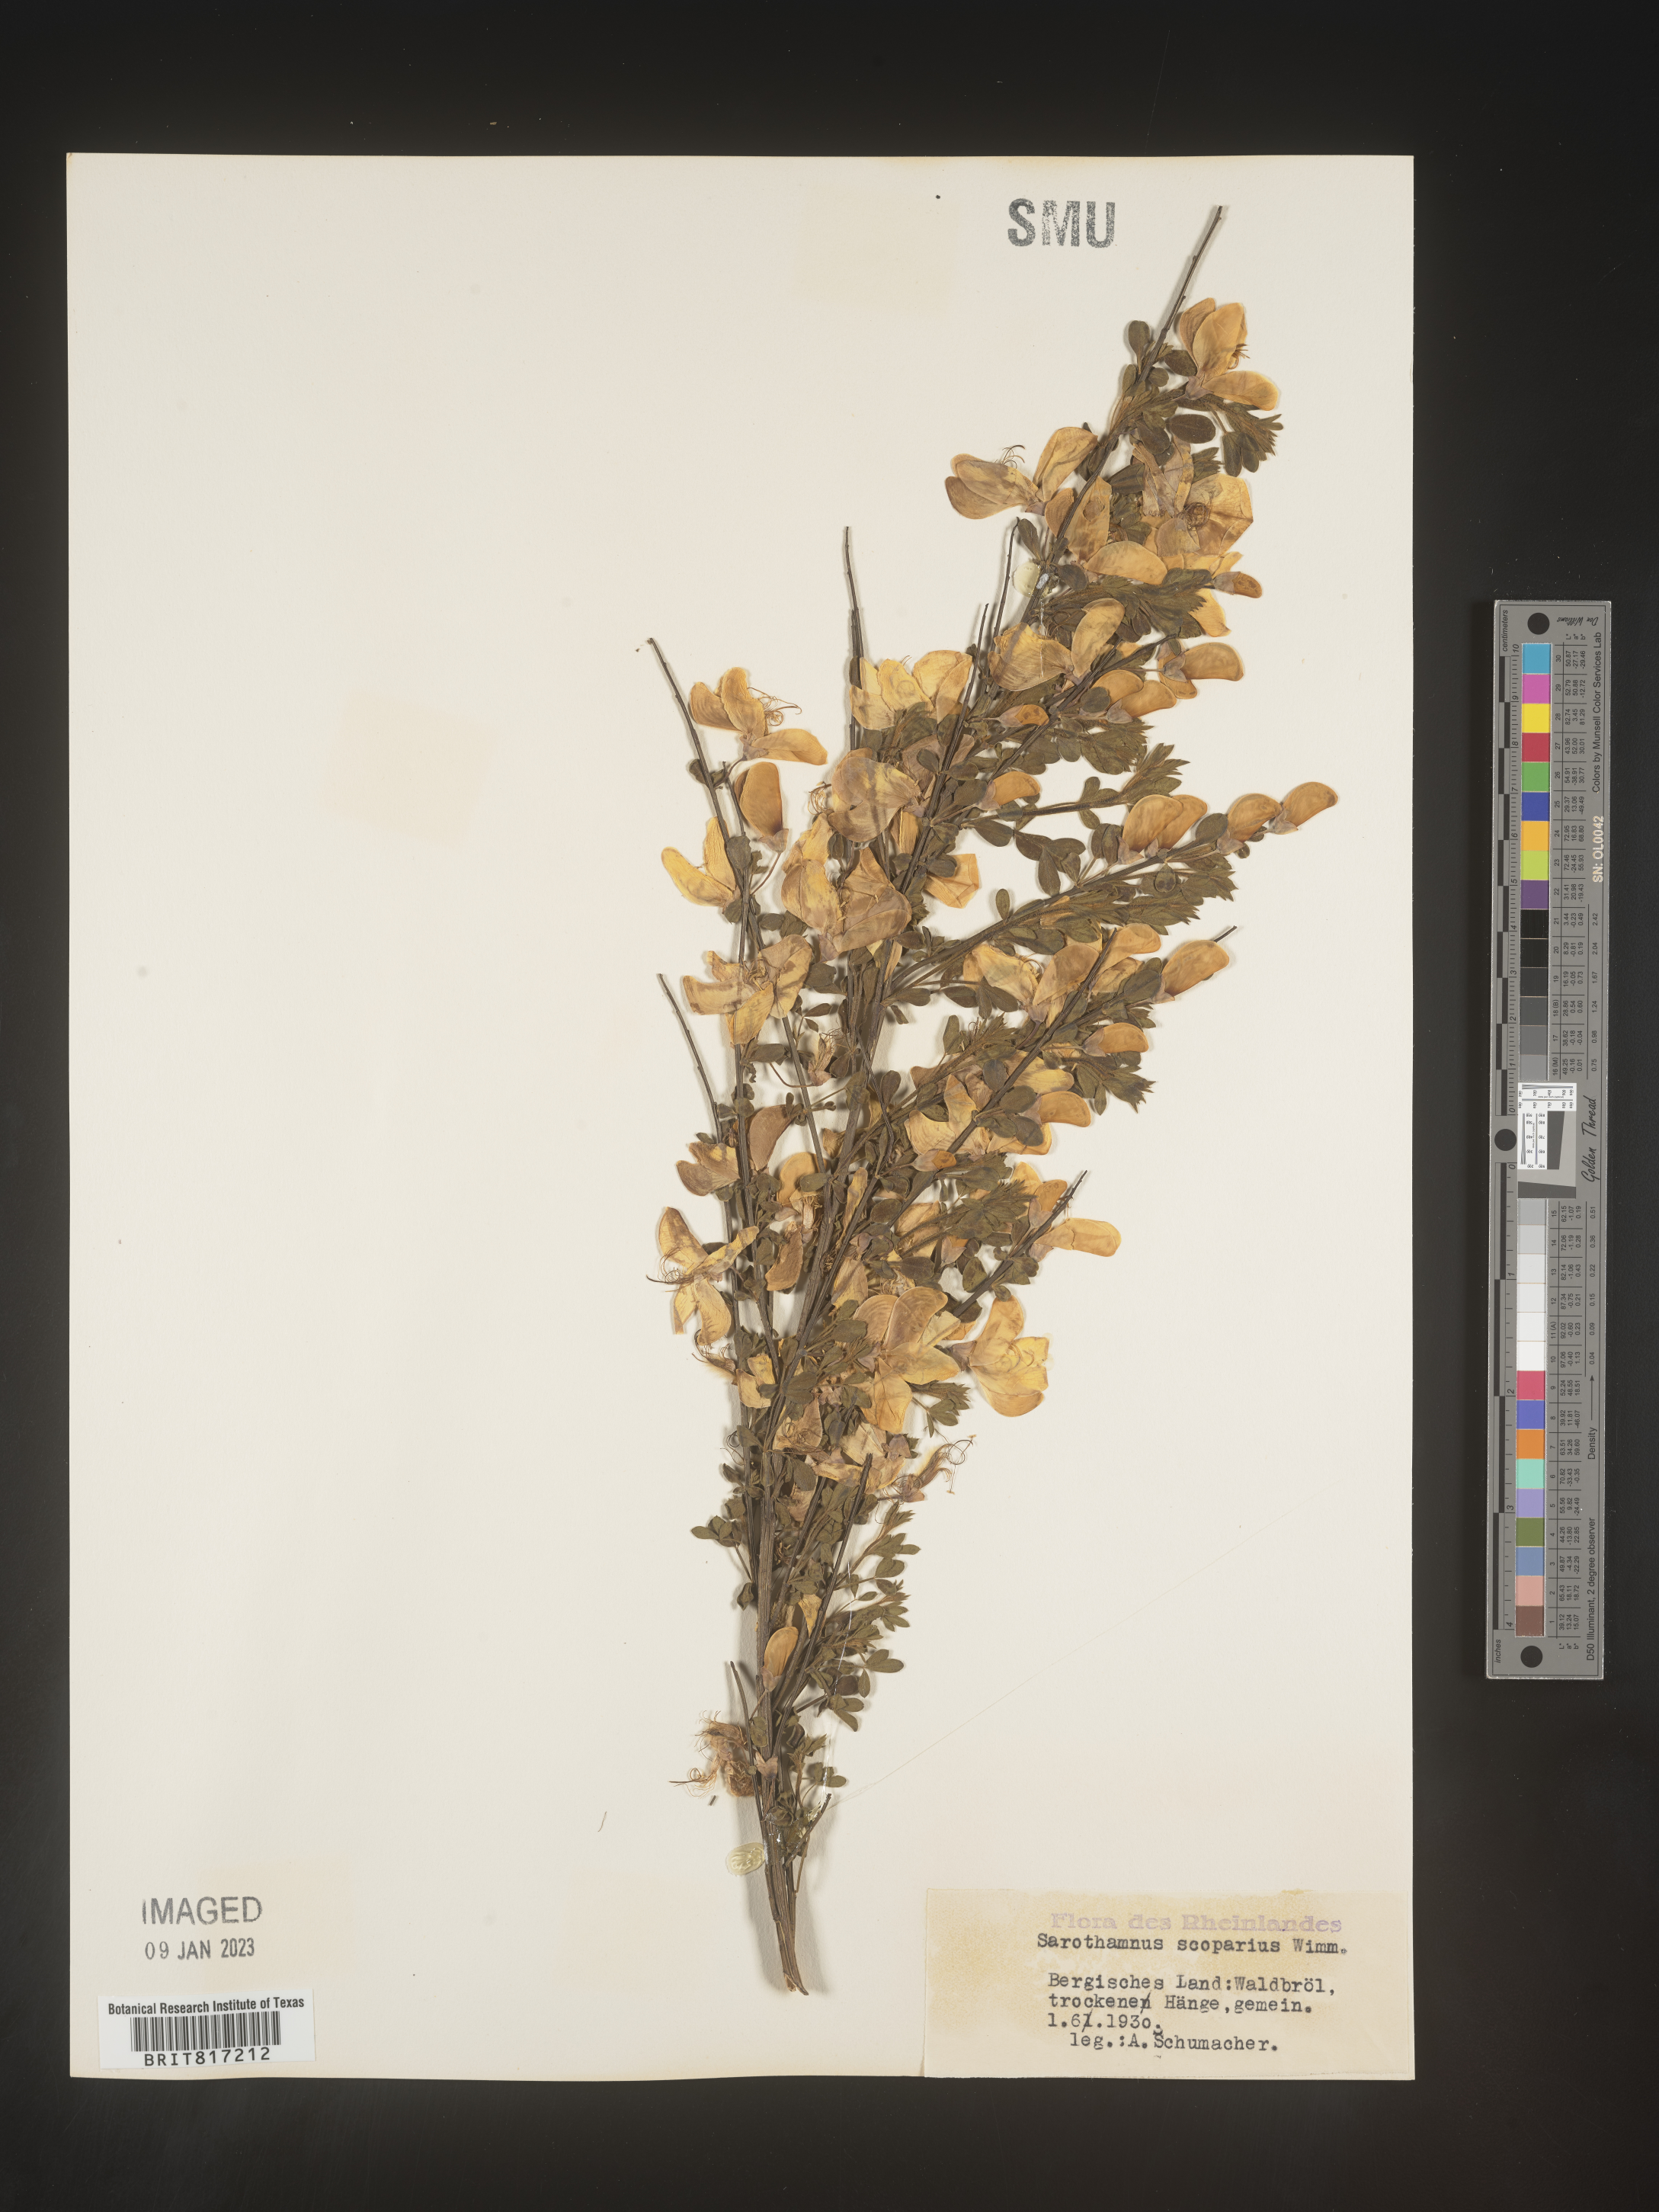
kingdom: Plantae
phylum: Tracheophyta
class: Magnoliopsida
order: Fabales
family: Fabaceae
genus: Cytisus
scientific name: Cytisus scoparius
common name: Scotch broom
